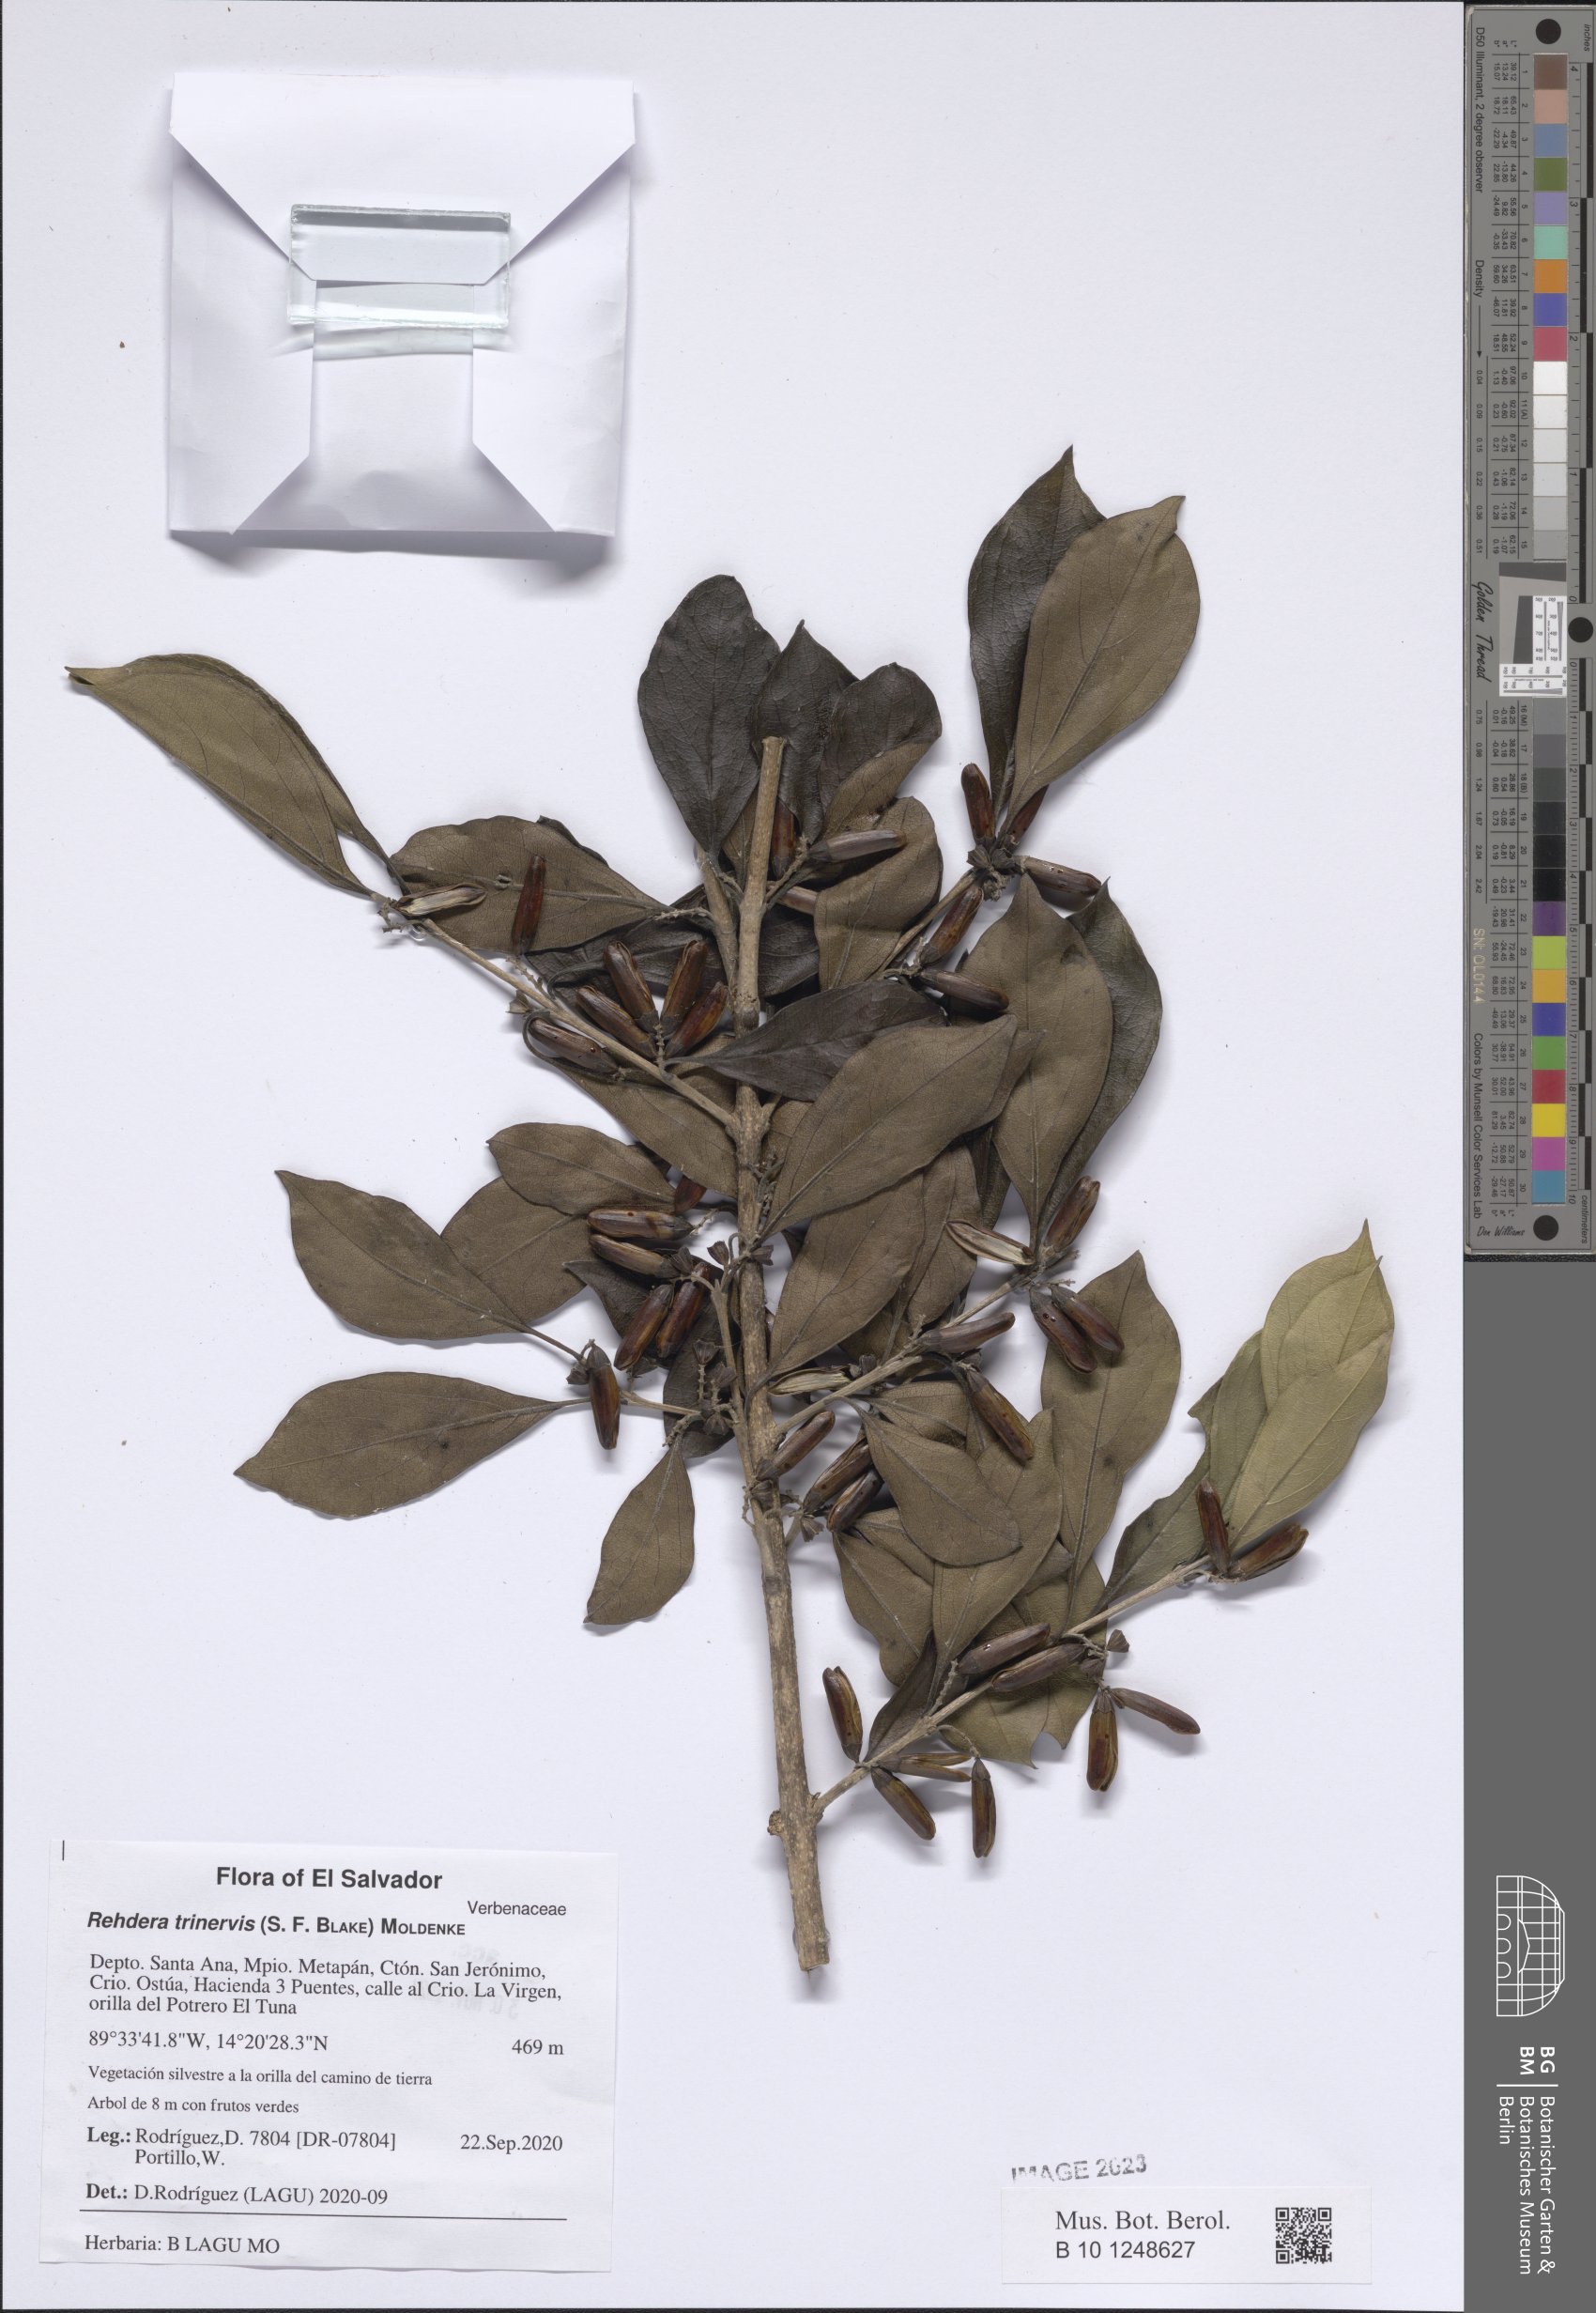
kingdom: Plantae
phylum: Tracheophyta
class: Magnoliopsida
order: Lamiales
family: Verbenaceae
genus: Rehdera
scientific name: Rehdera trinervis
